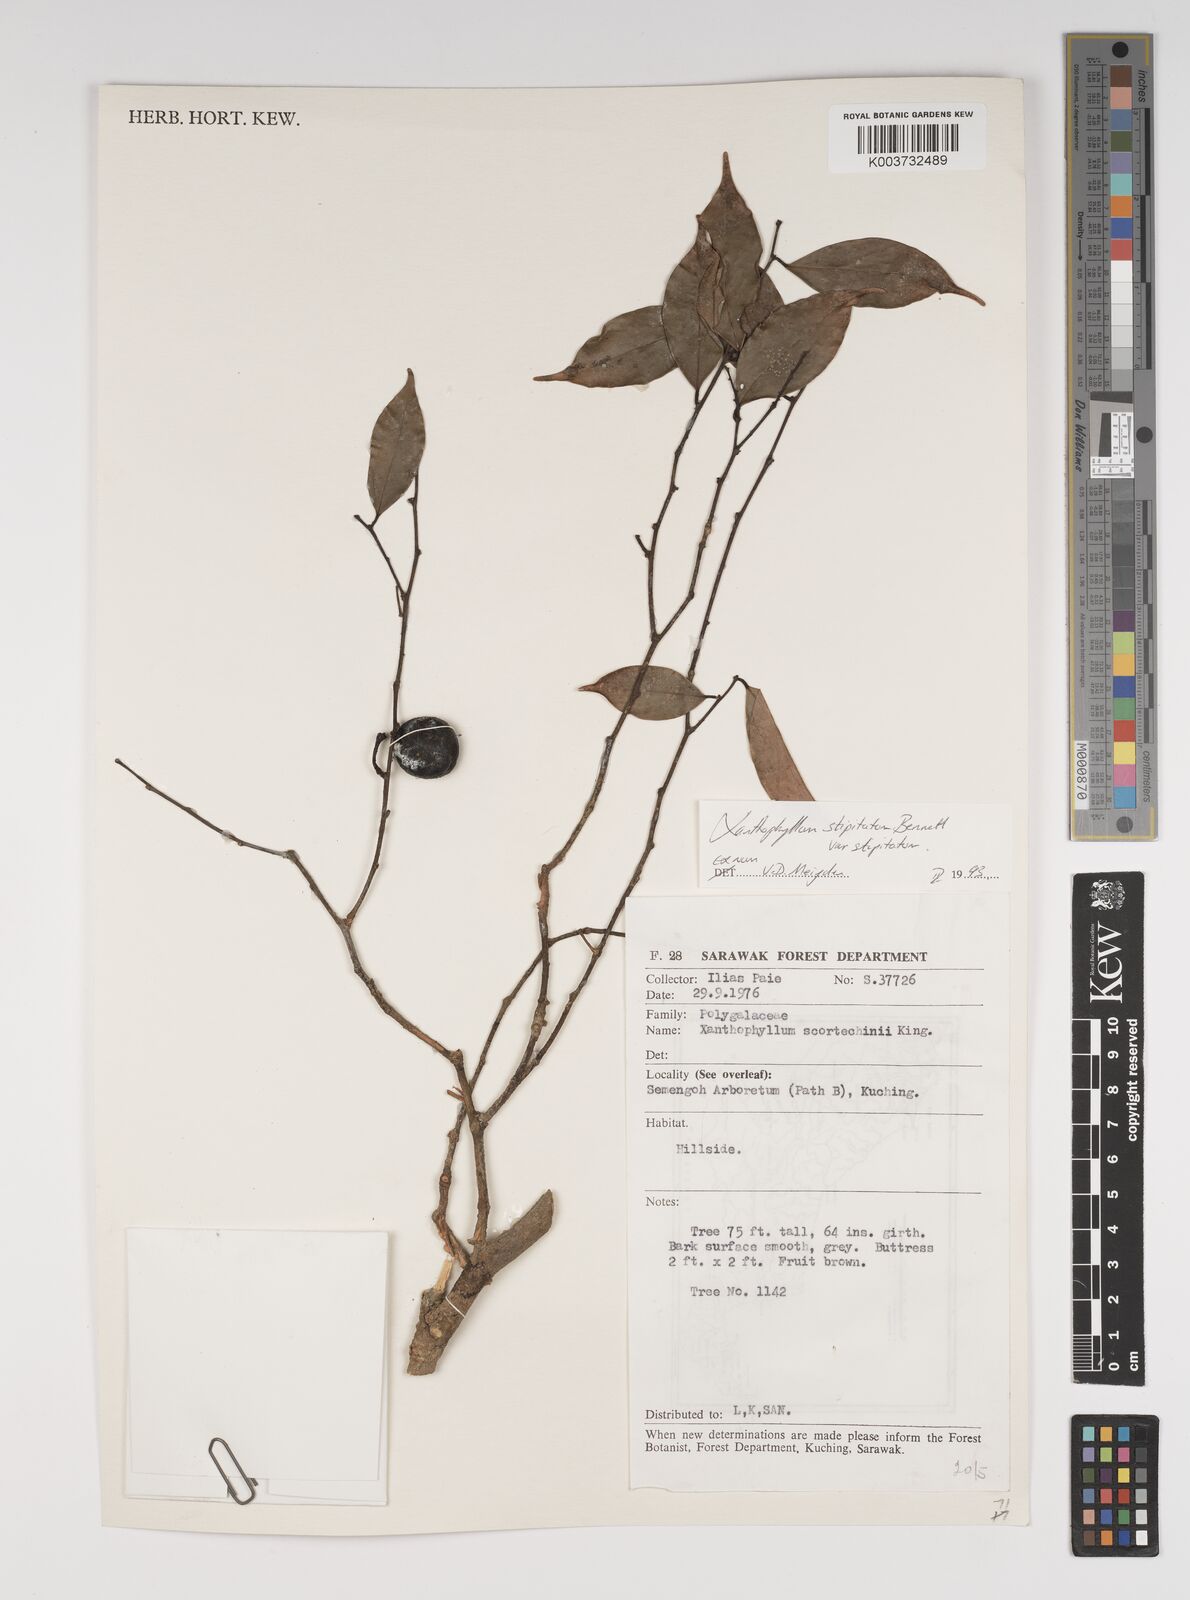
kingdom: Plantae
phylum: Tracheophyta
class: Magnoliopsida
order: Fabales
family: Polygalaceae
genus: Xanthophyllum
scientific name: Xanthophyllum stipitatum
